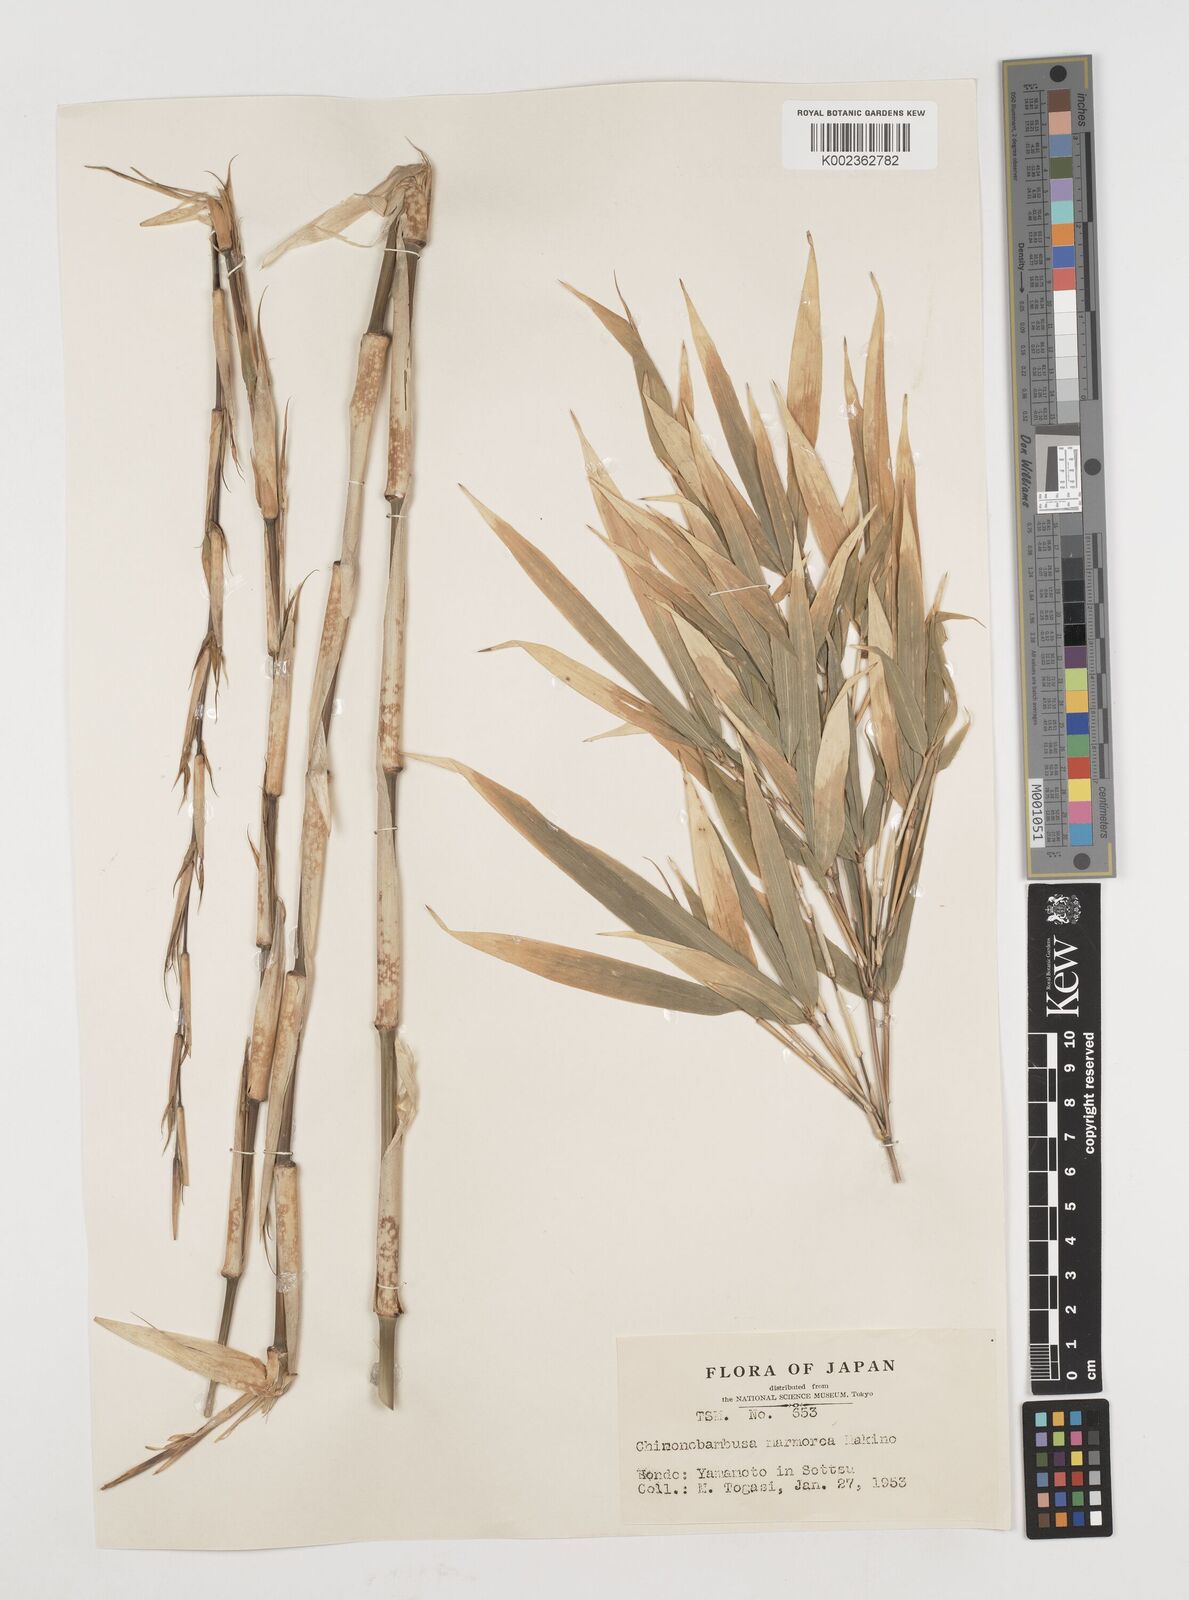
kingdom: Plantae
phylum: Tracheophyta
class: Liliopsida
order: Poales
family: Poaceae
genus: Chimonobambusa
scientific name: Chimonobambusa marmorea
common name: Marbled bamboo
